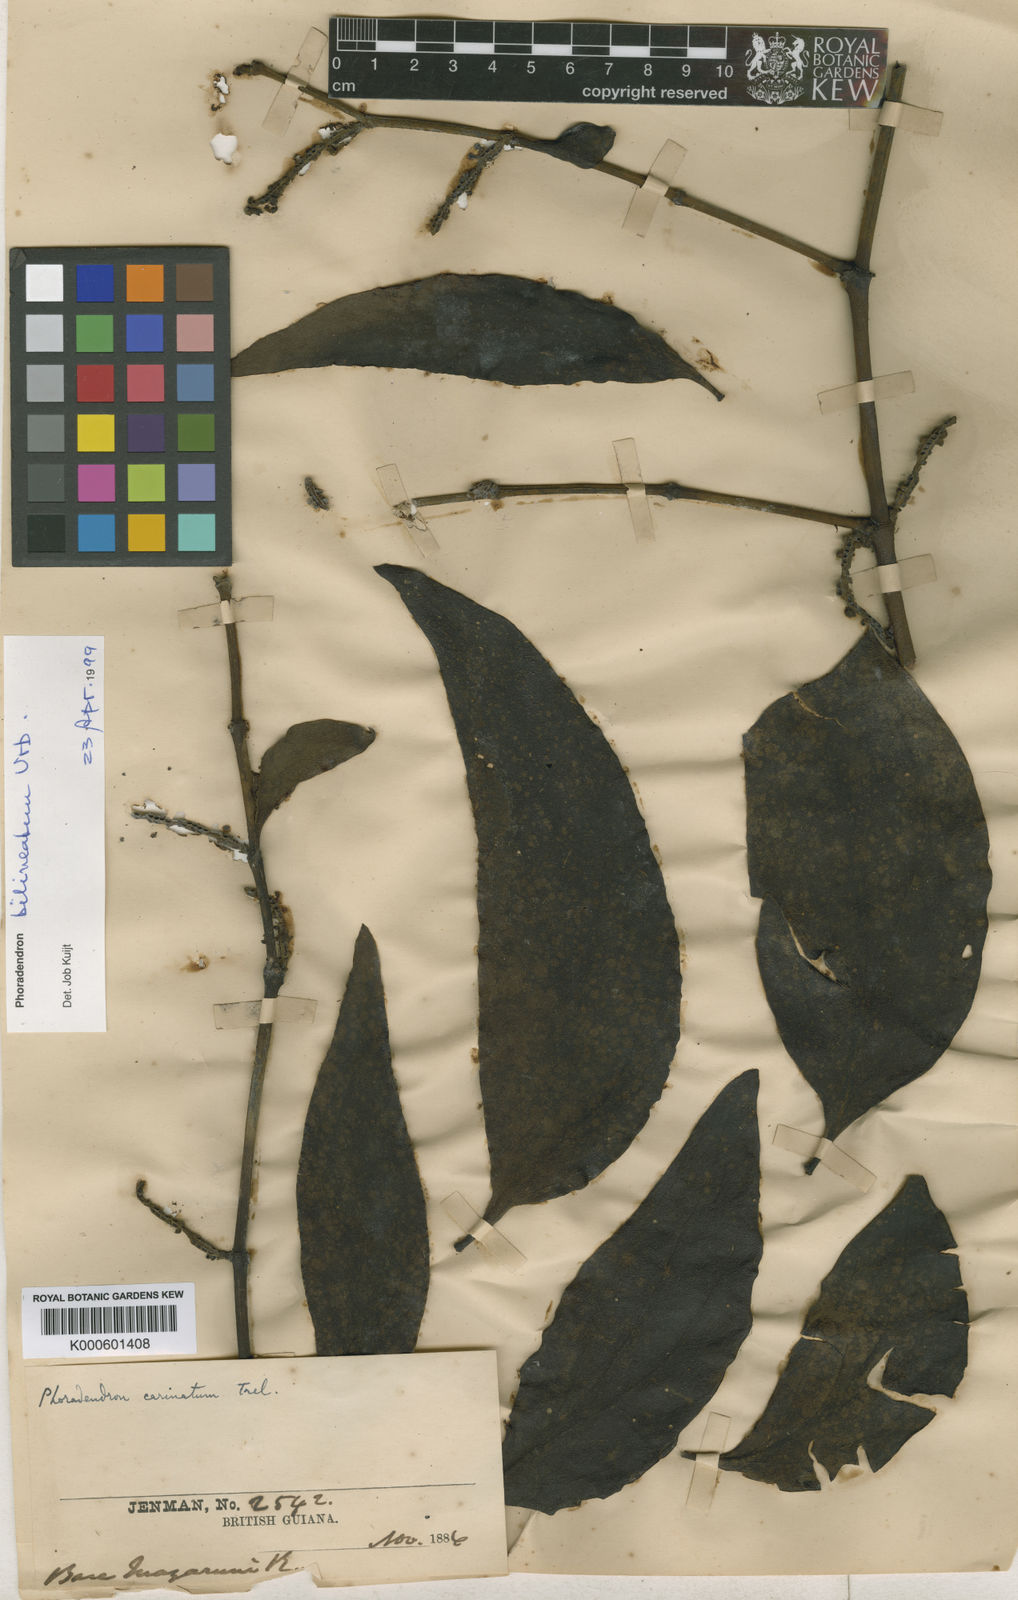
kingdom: Plantae
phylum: Tracheophyta
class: Magnoliopsida
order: Santalales
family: Viscaceae
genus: Phoradendron
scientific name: Phoradendron bilineatum
